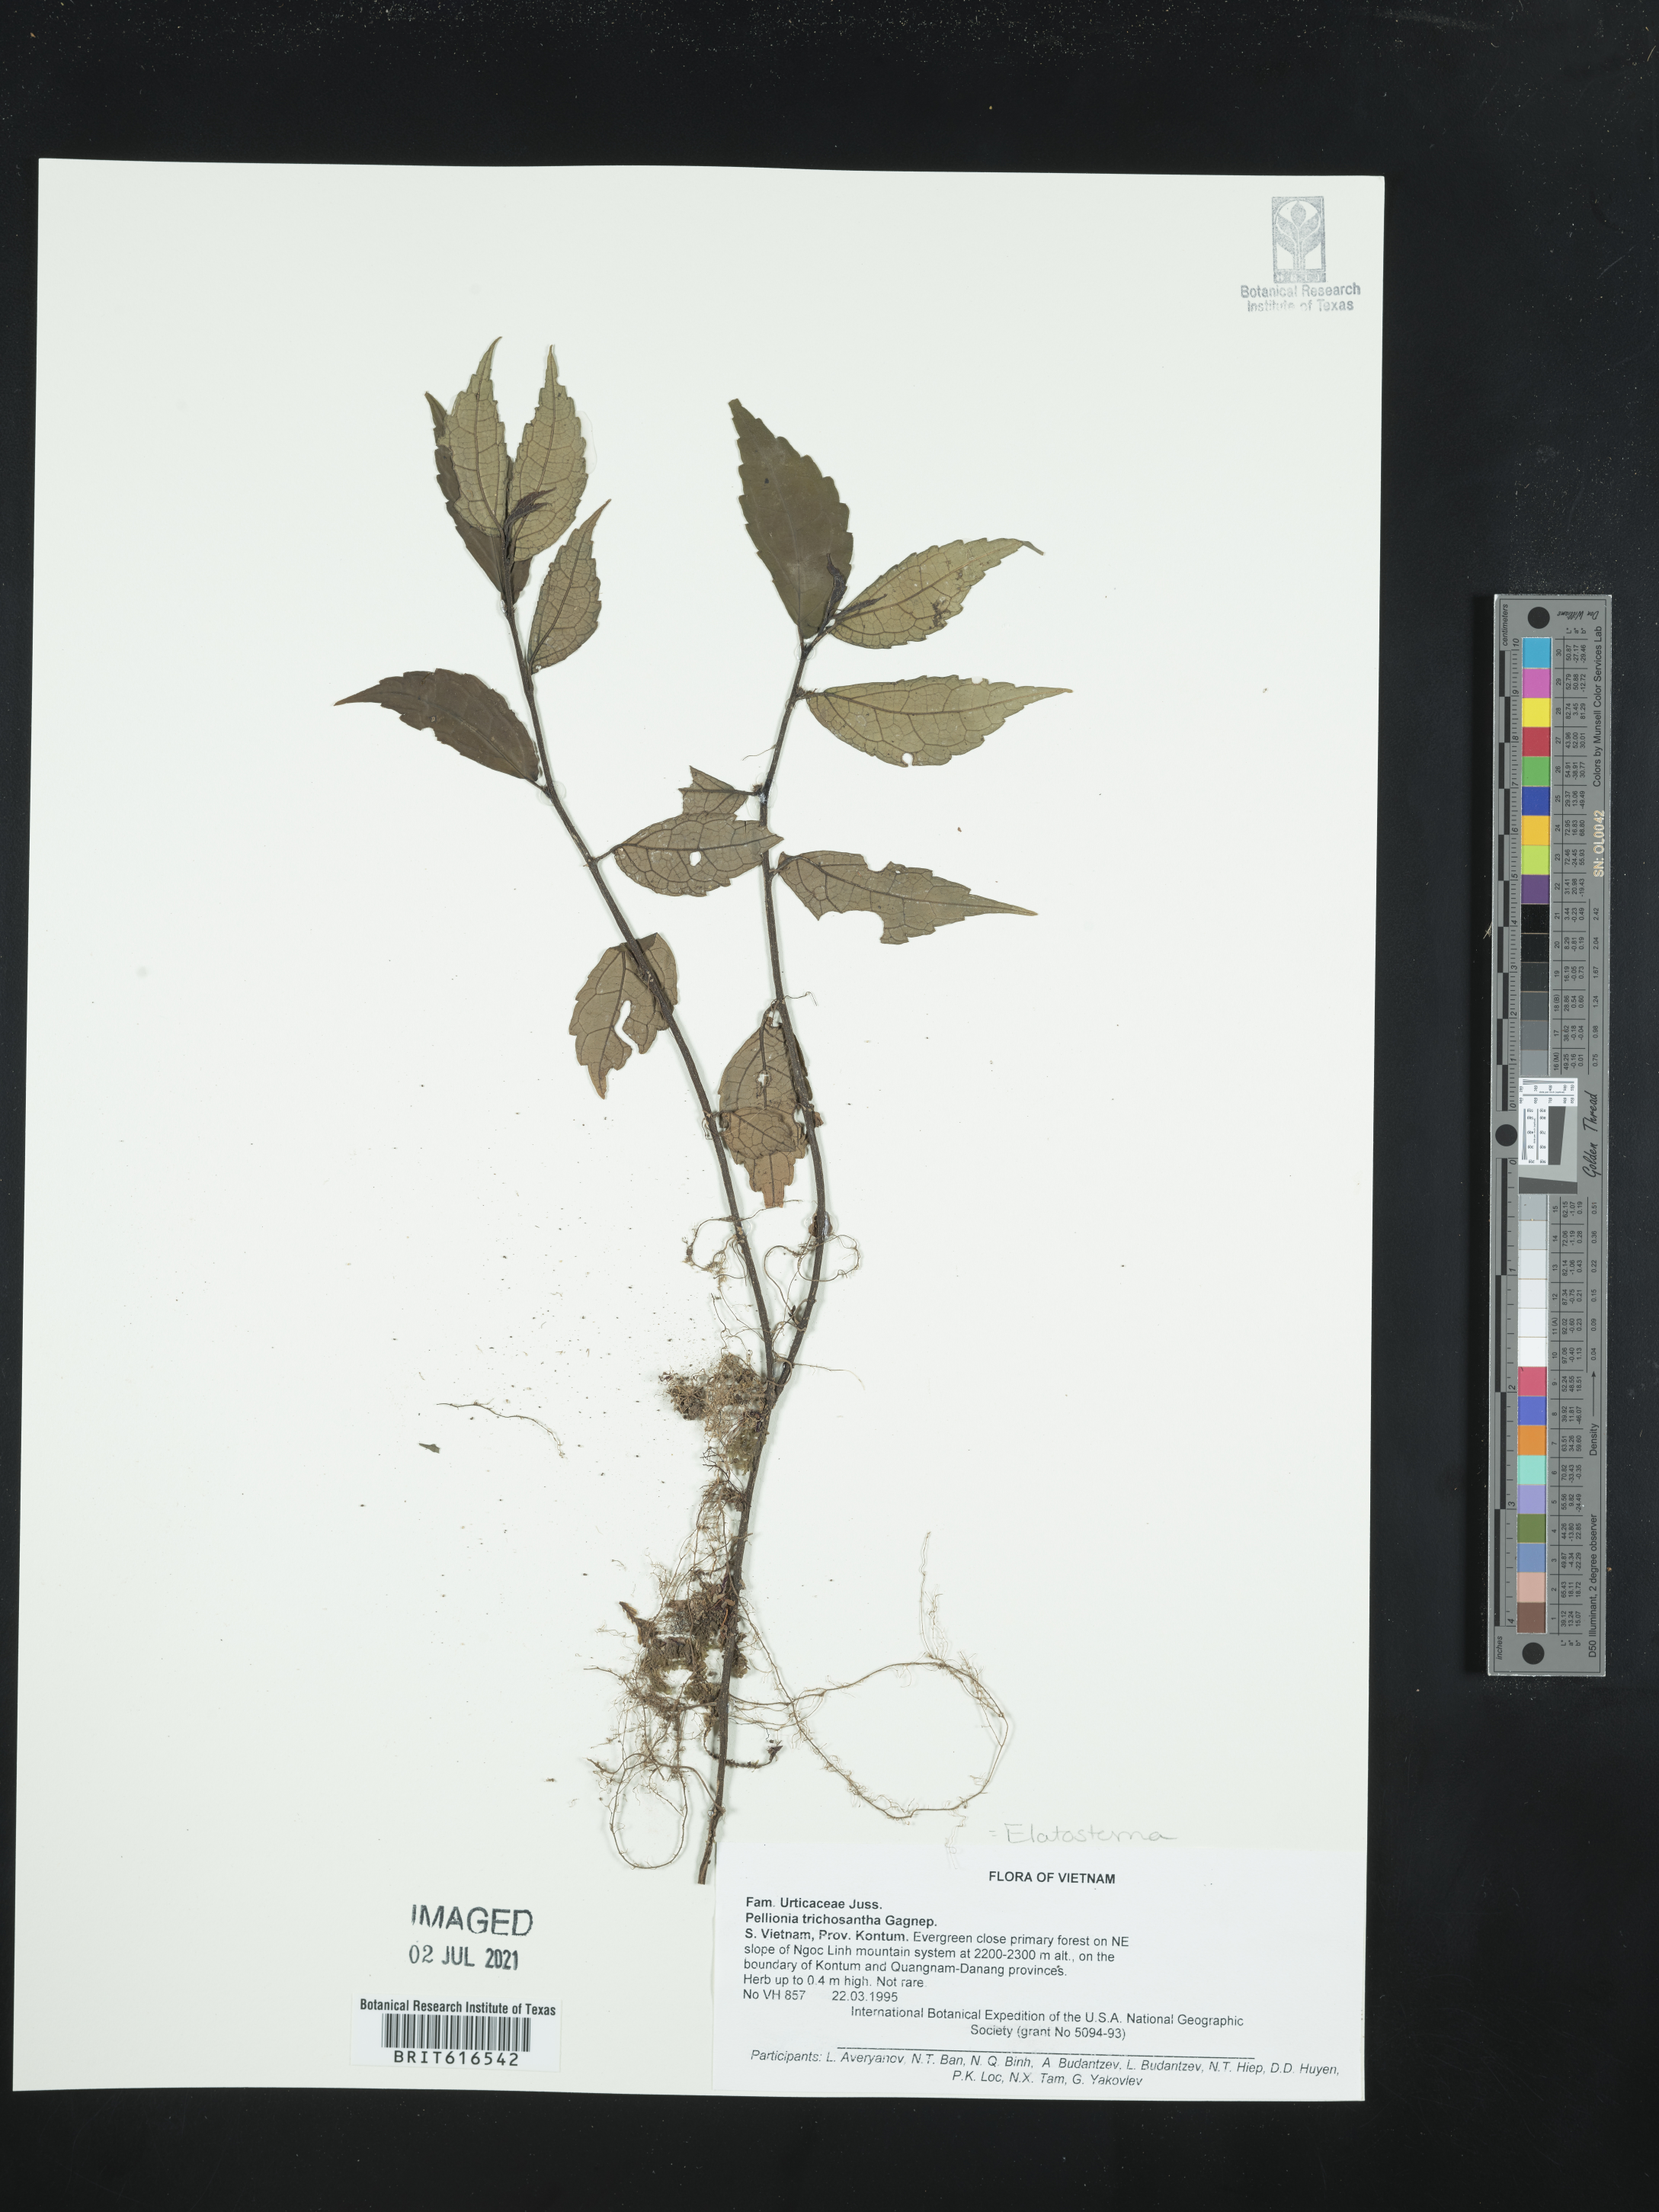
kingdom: Plantae
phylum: Tracheophyta
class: Magnoliopsida
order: Rosales
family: Urticaceae
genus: Elatostema
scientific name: Elatostema
